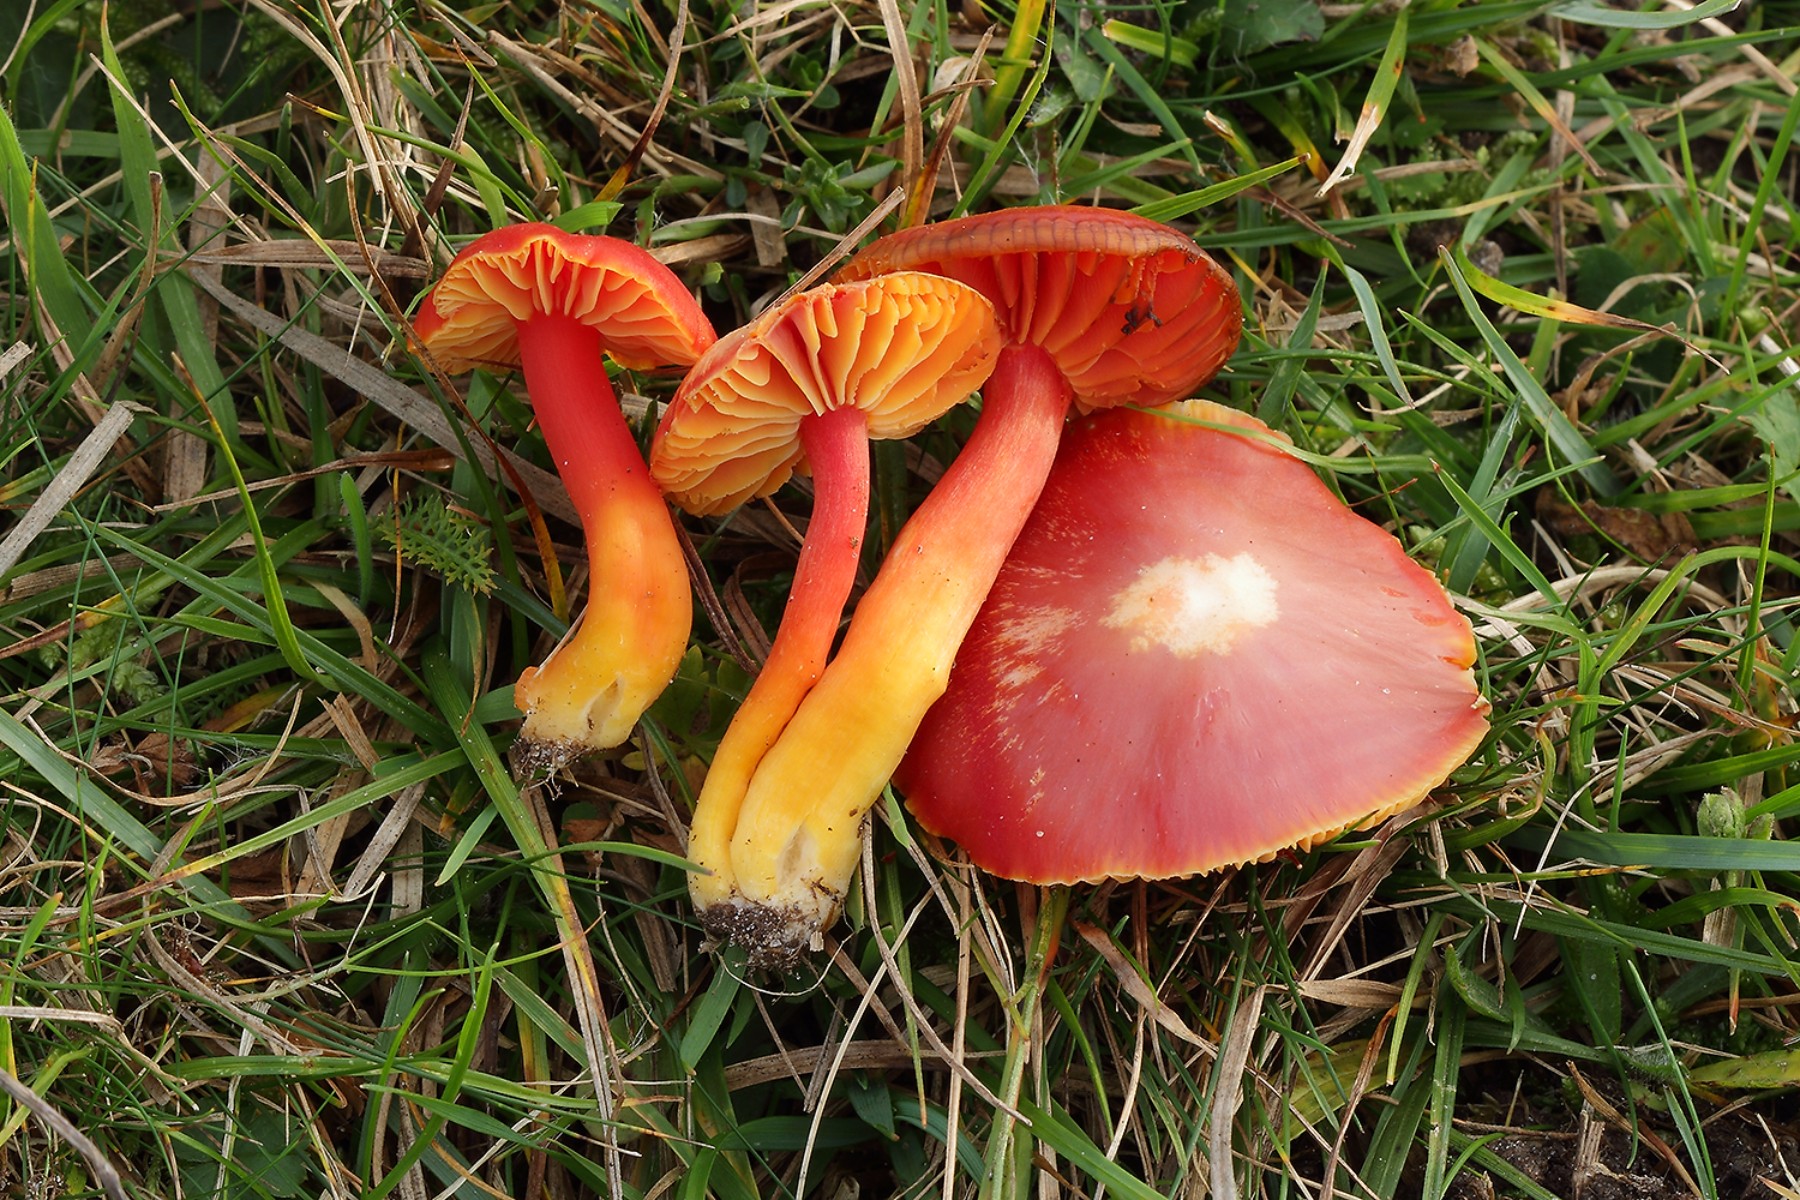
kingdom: Fungi
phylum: Basidiomycota
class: Agaricomycetes
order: Agaricales
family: Hygrophoraceae
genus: Hygrocybe
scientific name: Hygrocybe coccinea
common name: cinnober-vokshat
